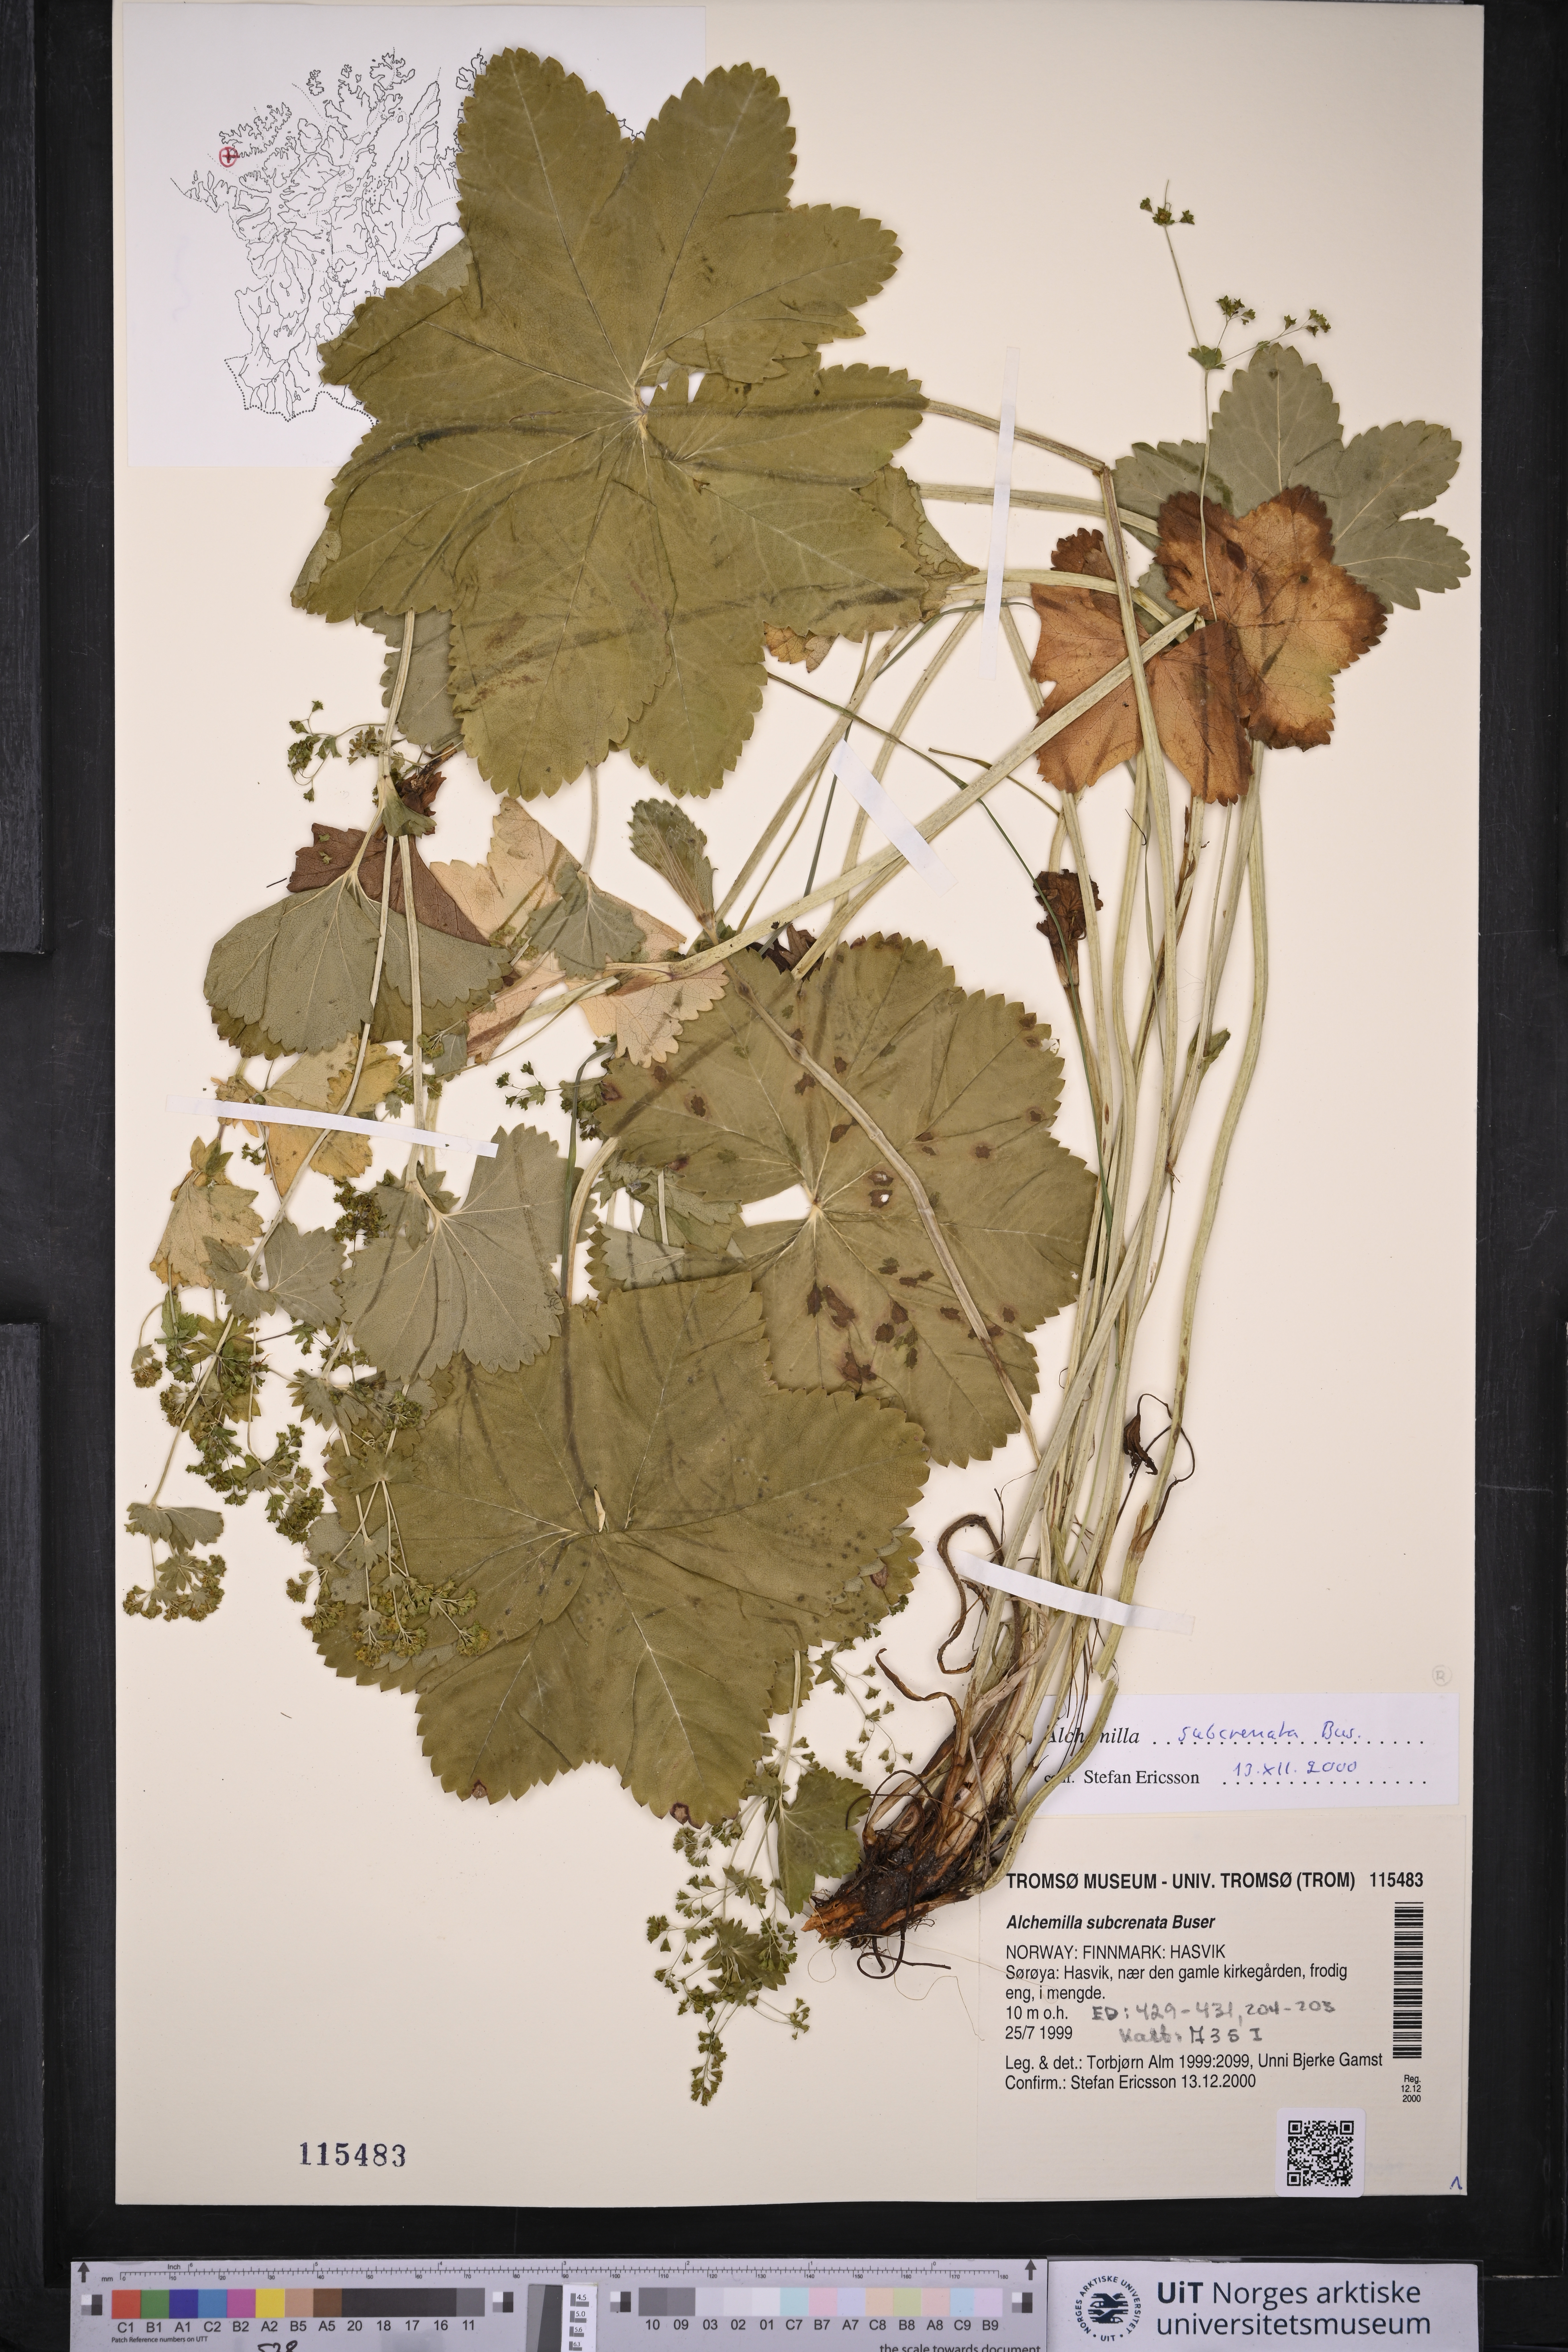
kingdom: Plantae
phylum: Tracheophyta
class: Magnoliopsida
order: Rosales
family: Rosaceae
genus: Alchemilla
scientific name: Alchemilla subcrenata
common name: Broadtooth lady's mantle
